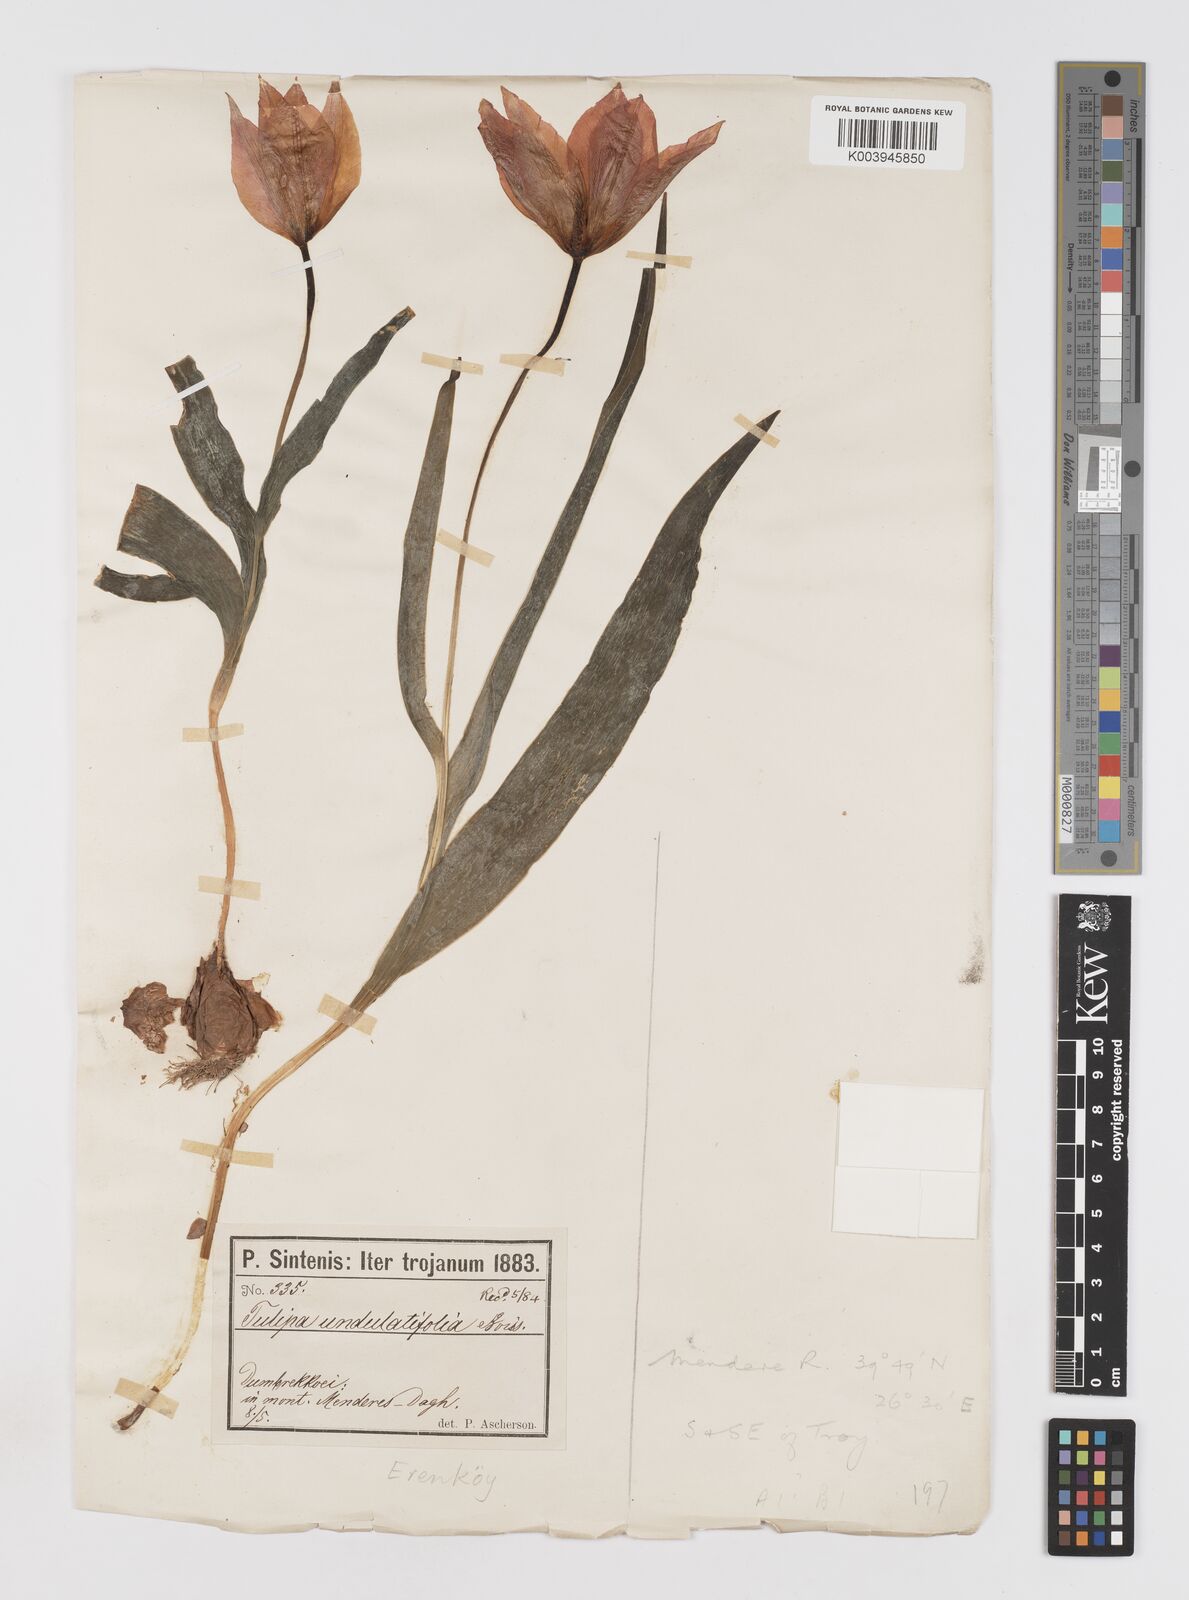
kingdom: Plantae
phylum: Tracheophyta
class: Liliopsida
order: Liliales
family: Liliaceae
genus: Tulipa
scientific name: Tulipa undulatifolia
